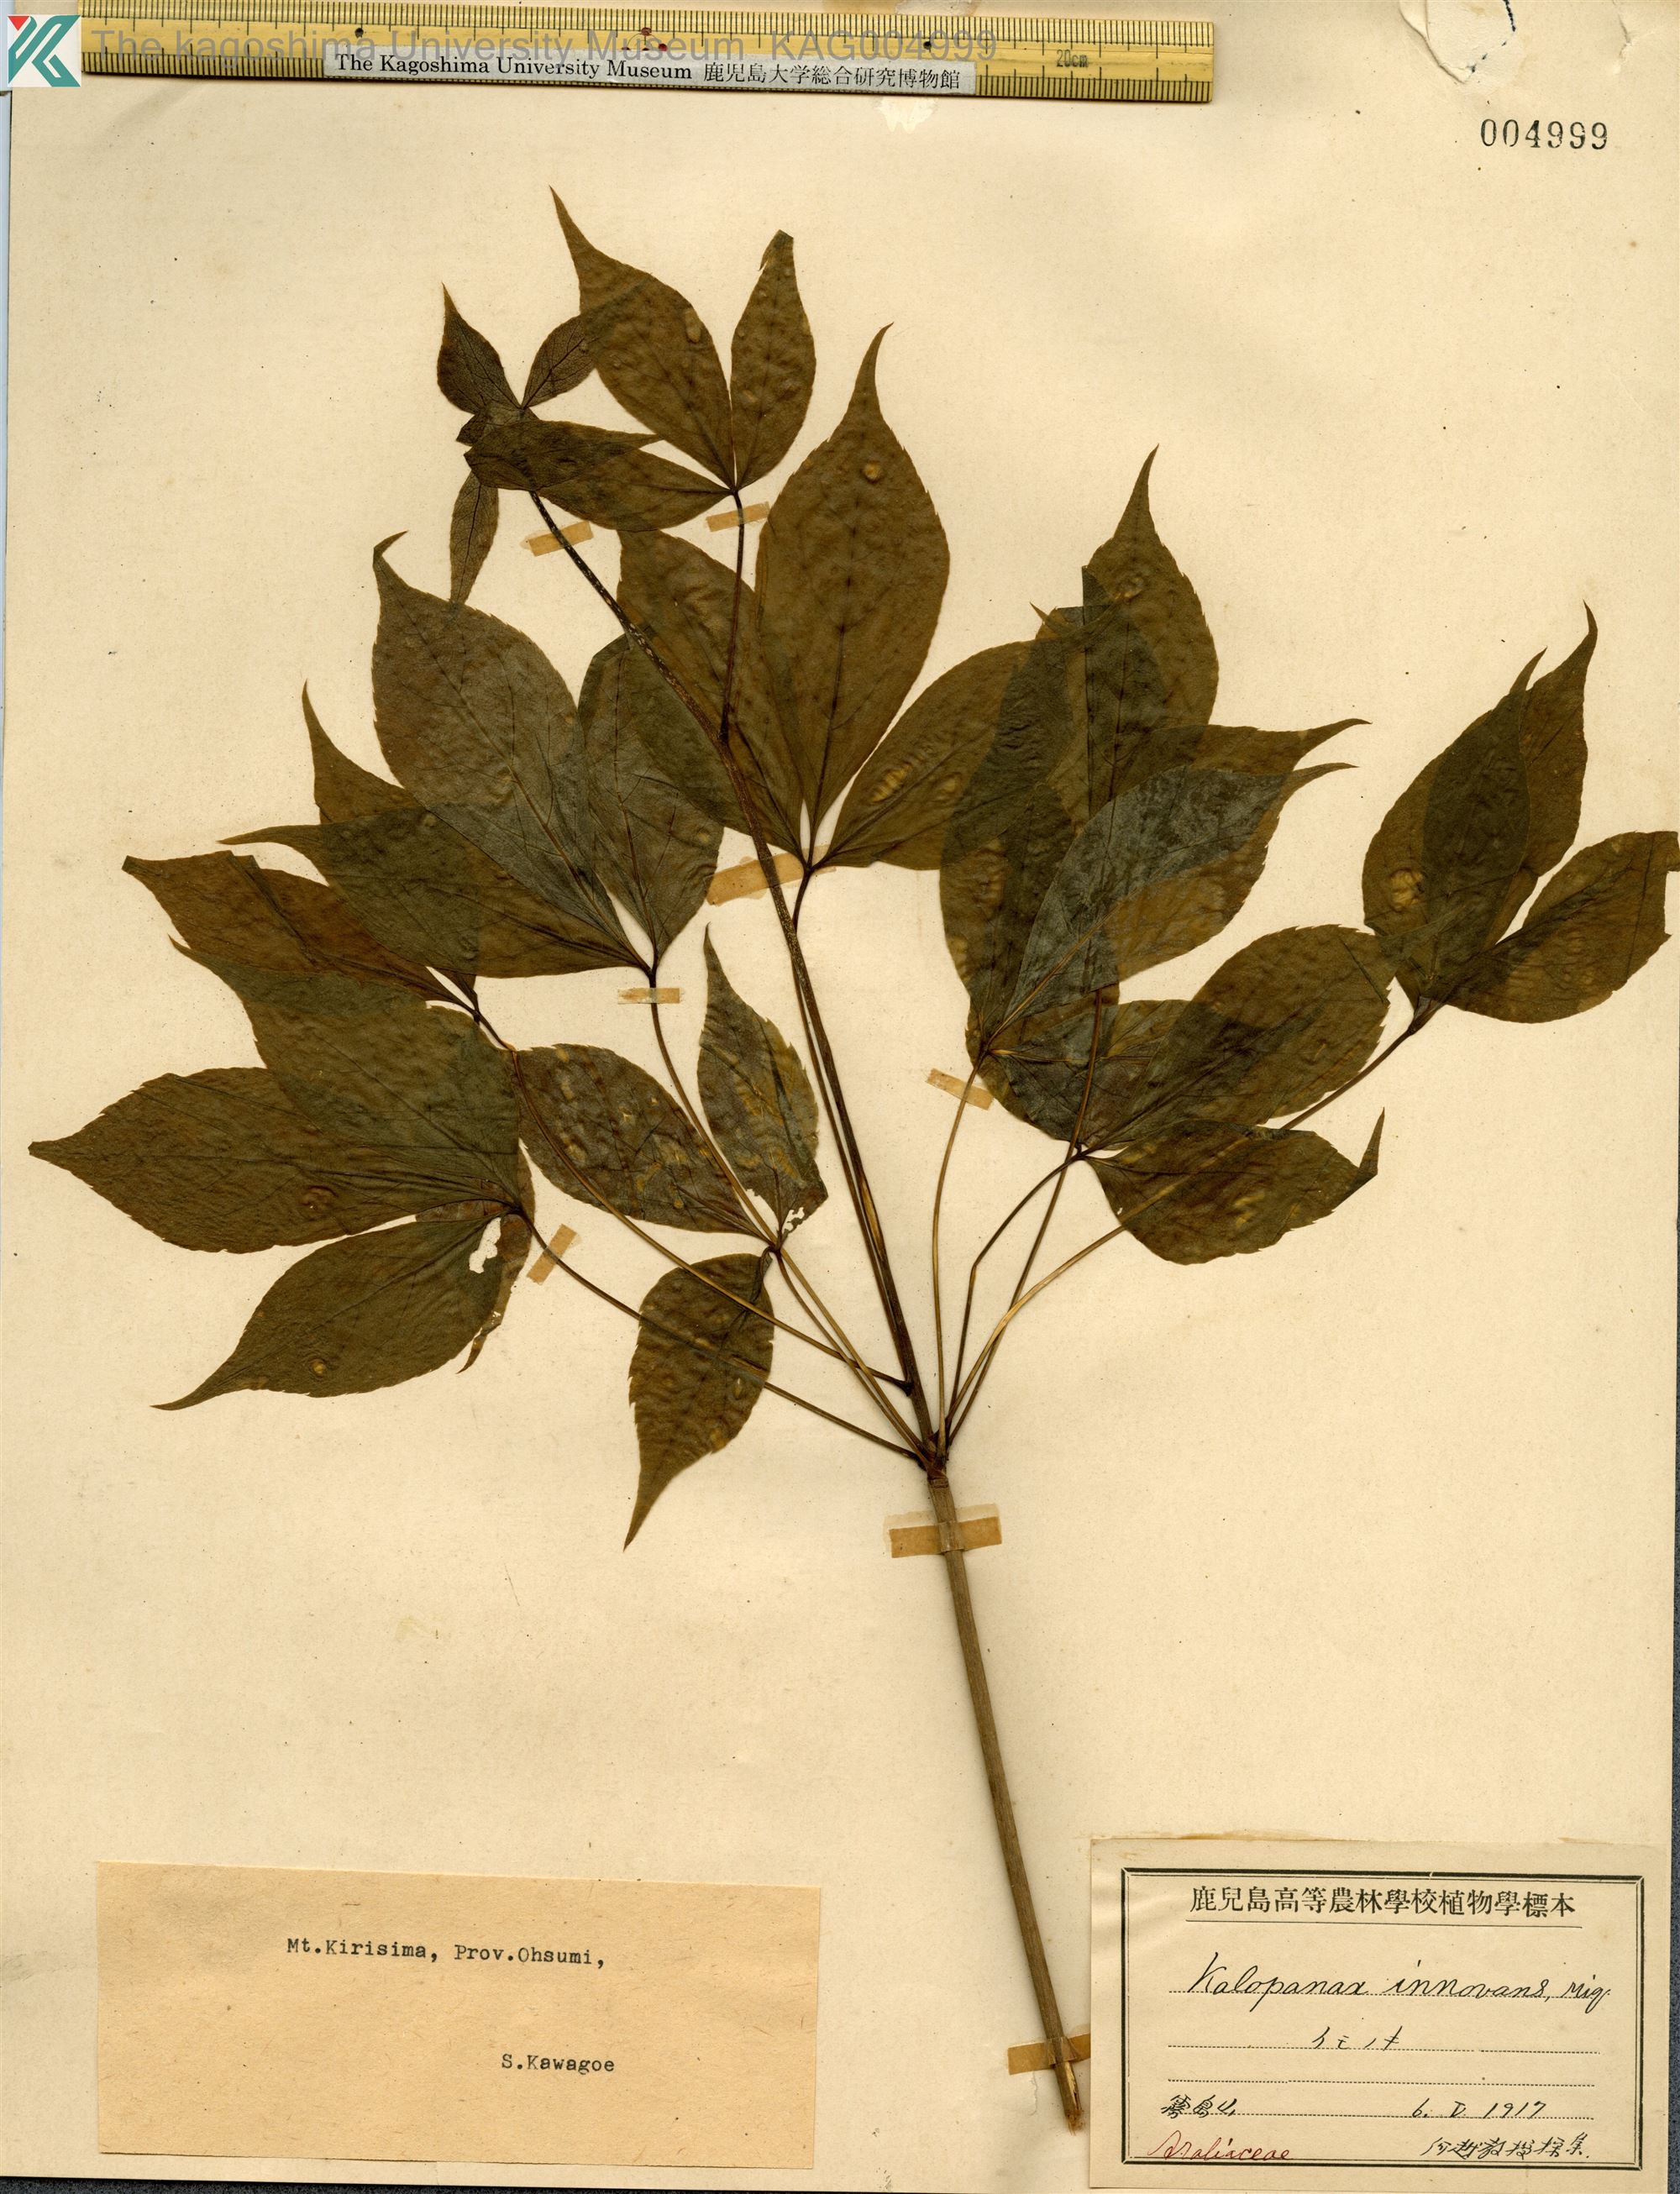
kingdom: Plantae
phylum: Tracheophyta
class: Magnoliopsida
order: Apiales
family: Araliaceae
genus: Gamblea
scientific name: Gamblea innovans
